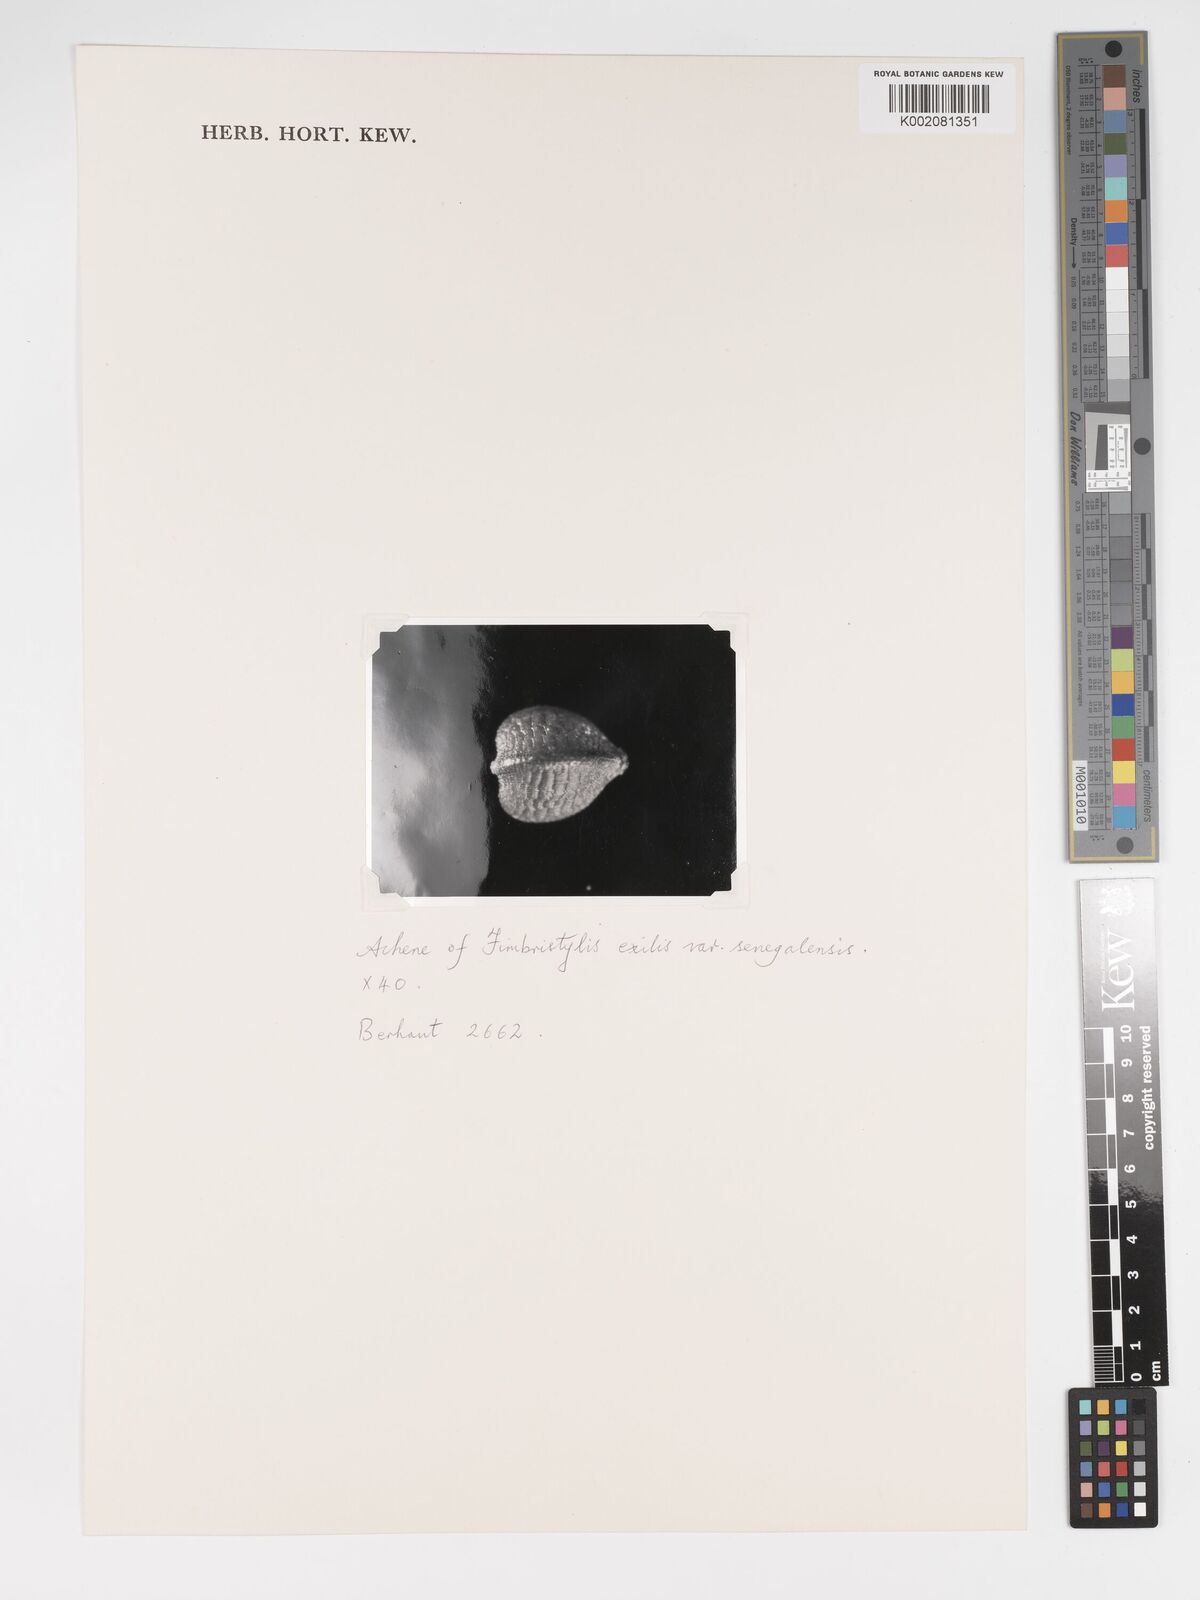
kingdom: Plantae
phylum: Tracheophyta
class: Liliopsida
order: Poales
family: Cyperaceae
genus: Bulbostylis
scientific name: Bulbostylis hispidula
